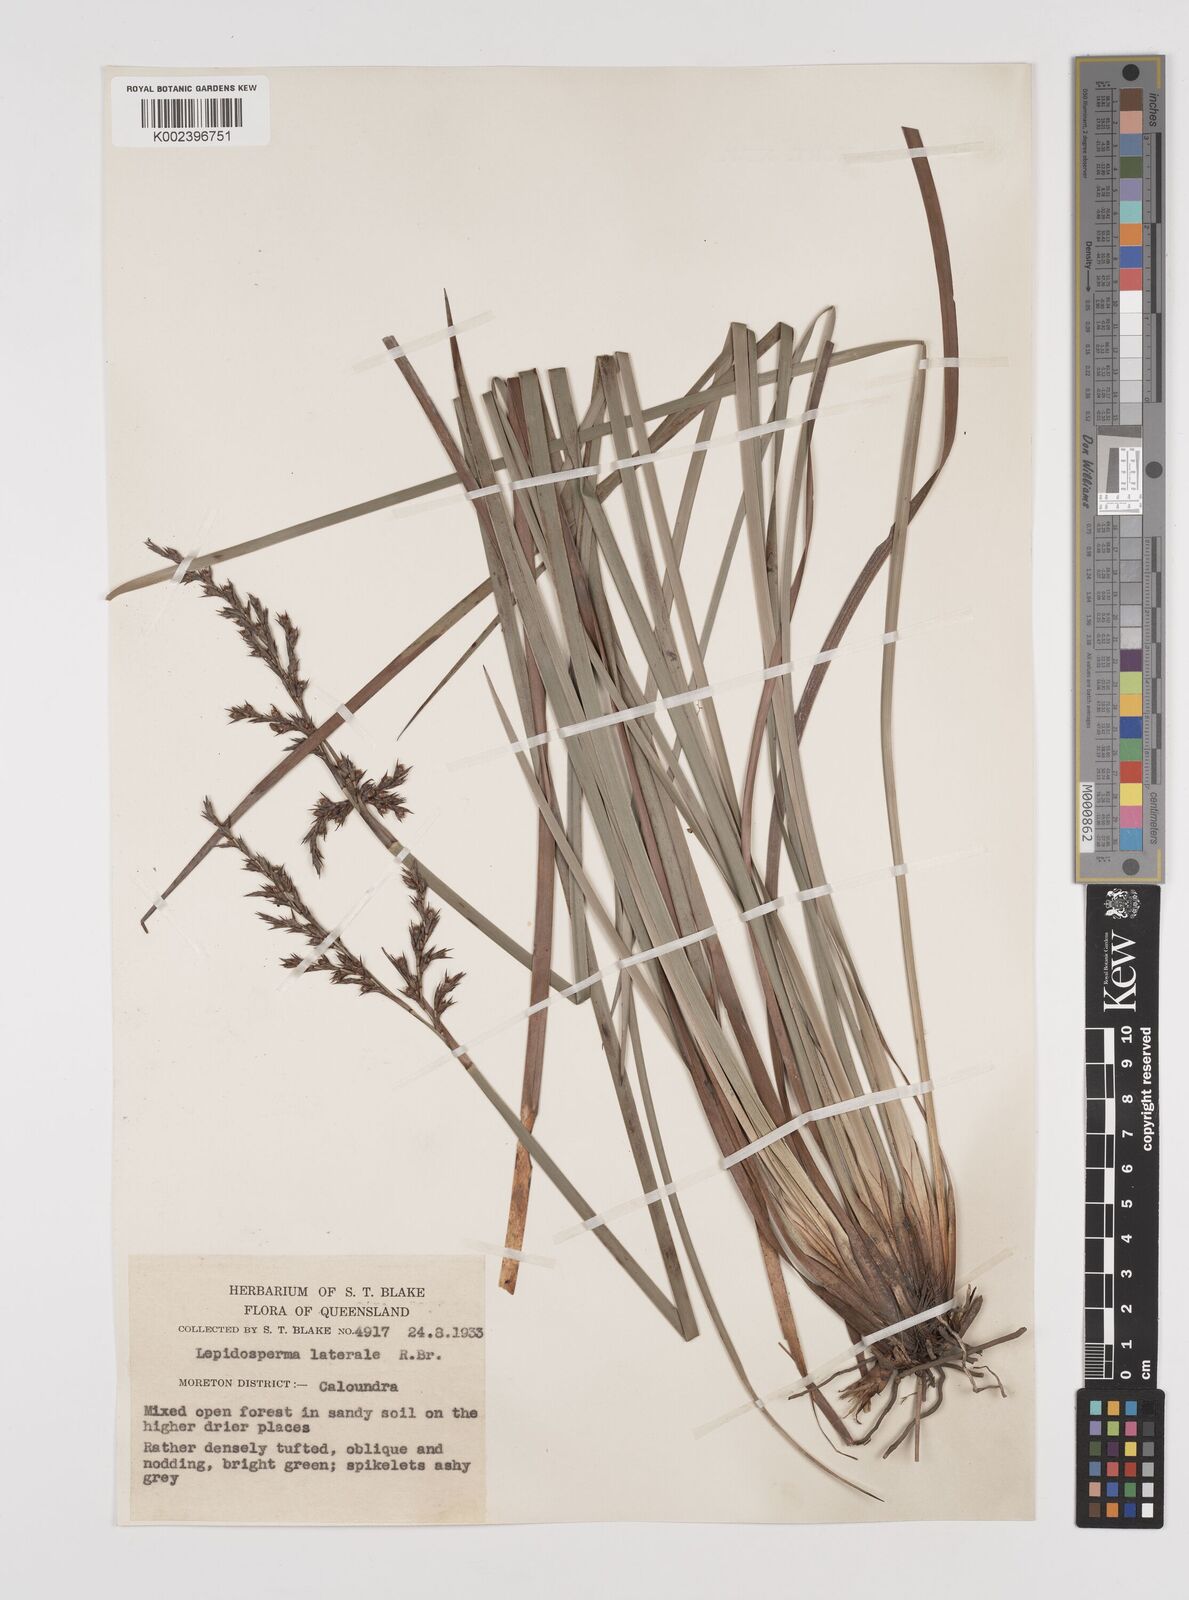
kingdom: Plantae
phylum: Tracheophyta
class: Liliopsida
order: Poales
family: Cyperaceae
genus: Lepidosperma
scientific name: Lepidosperma laterale
